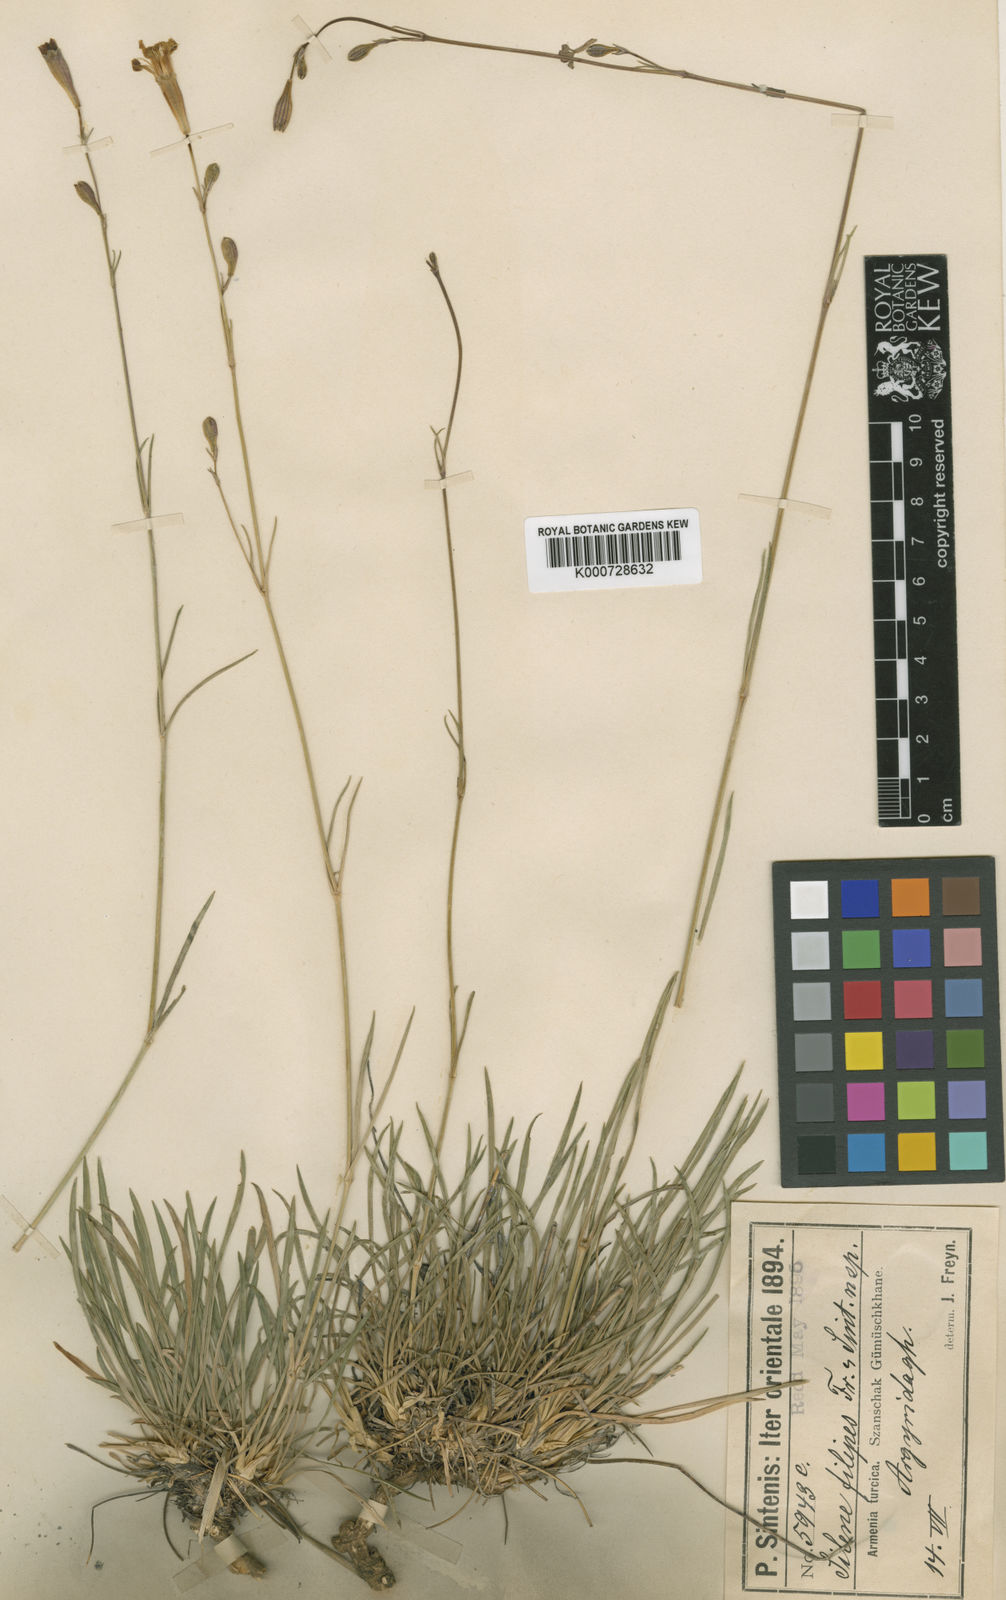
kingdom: Plantae
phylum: Tracheophyta
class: Magnoliopsida
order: Caryophyllales
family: Caryophyllaceae
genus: Silene
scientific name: Silene armena
